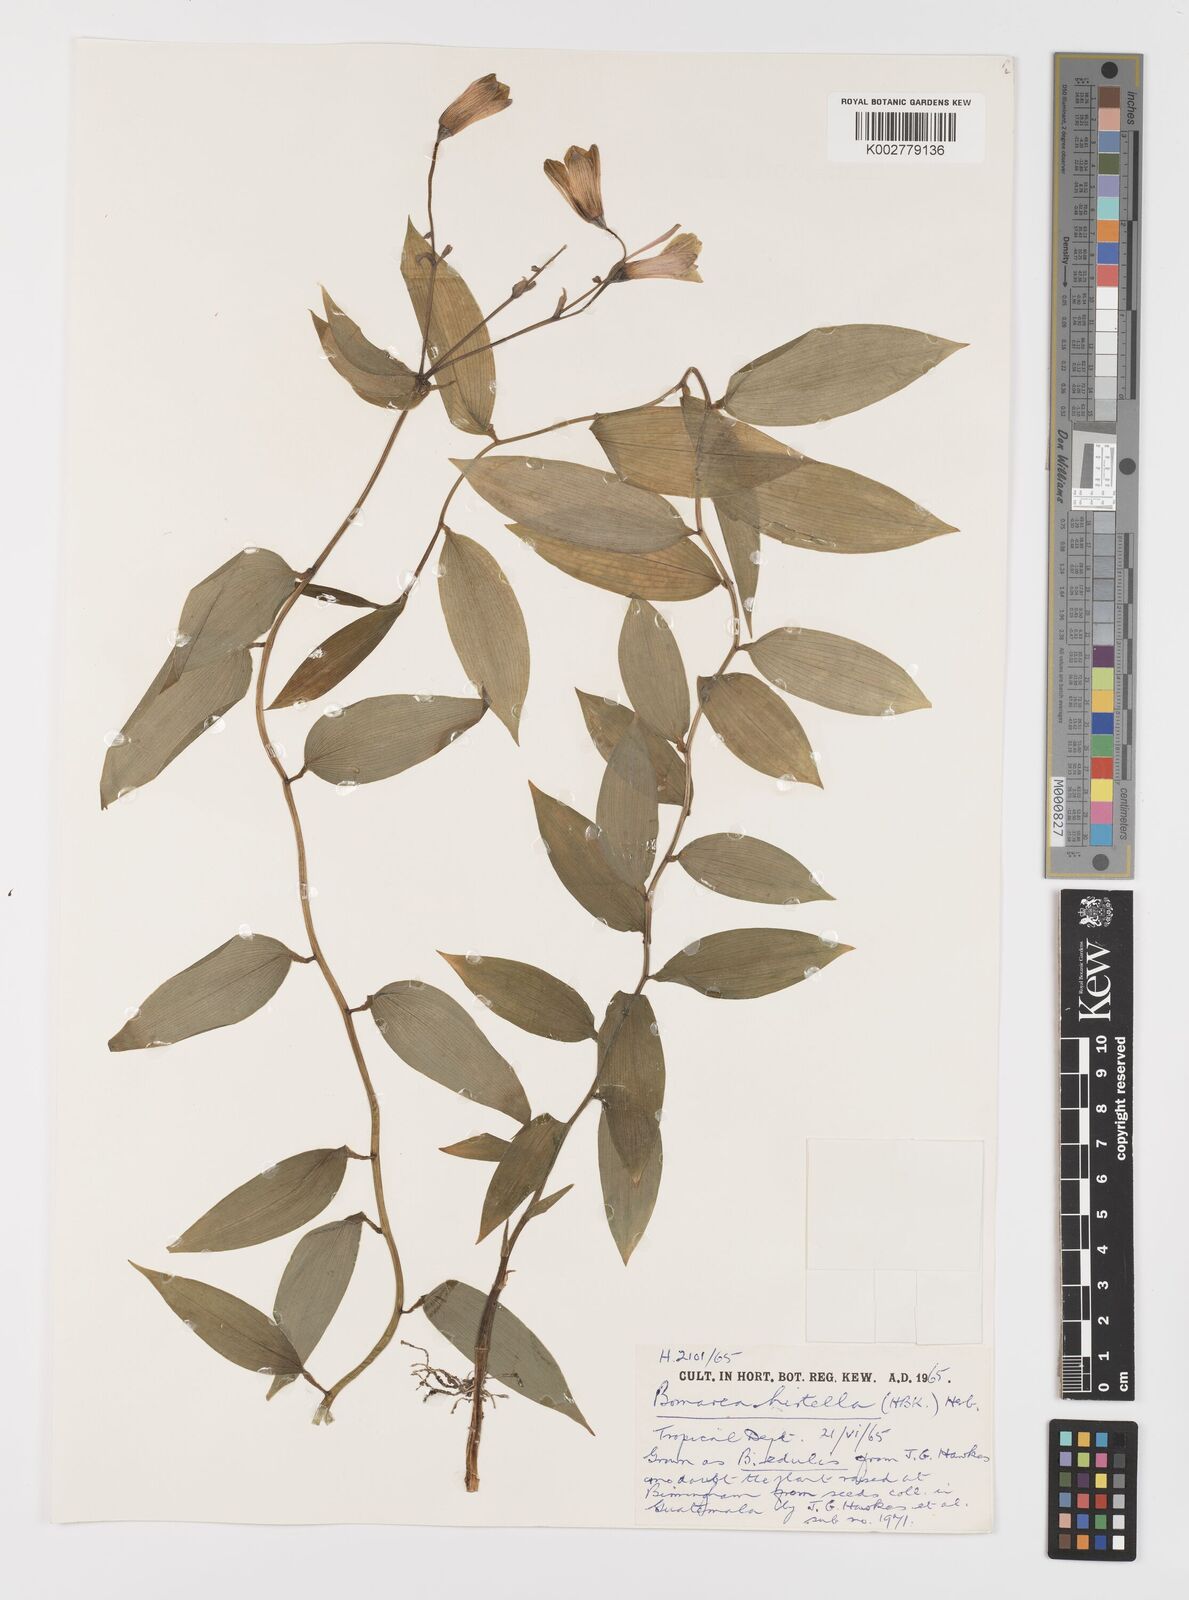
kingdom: Plantae
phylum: Tracheophyta
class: Liliopsida
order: Liliales
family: Alstroemeriaceae
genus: Bomarea
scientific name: Bomarea edulis
